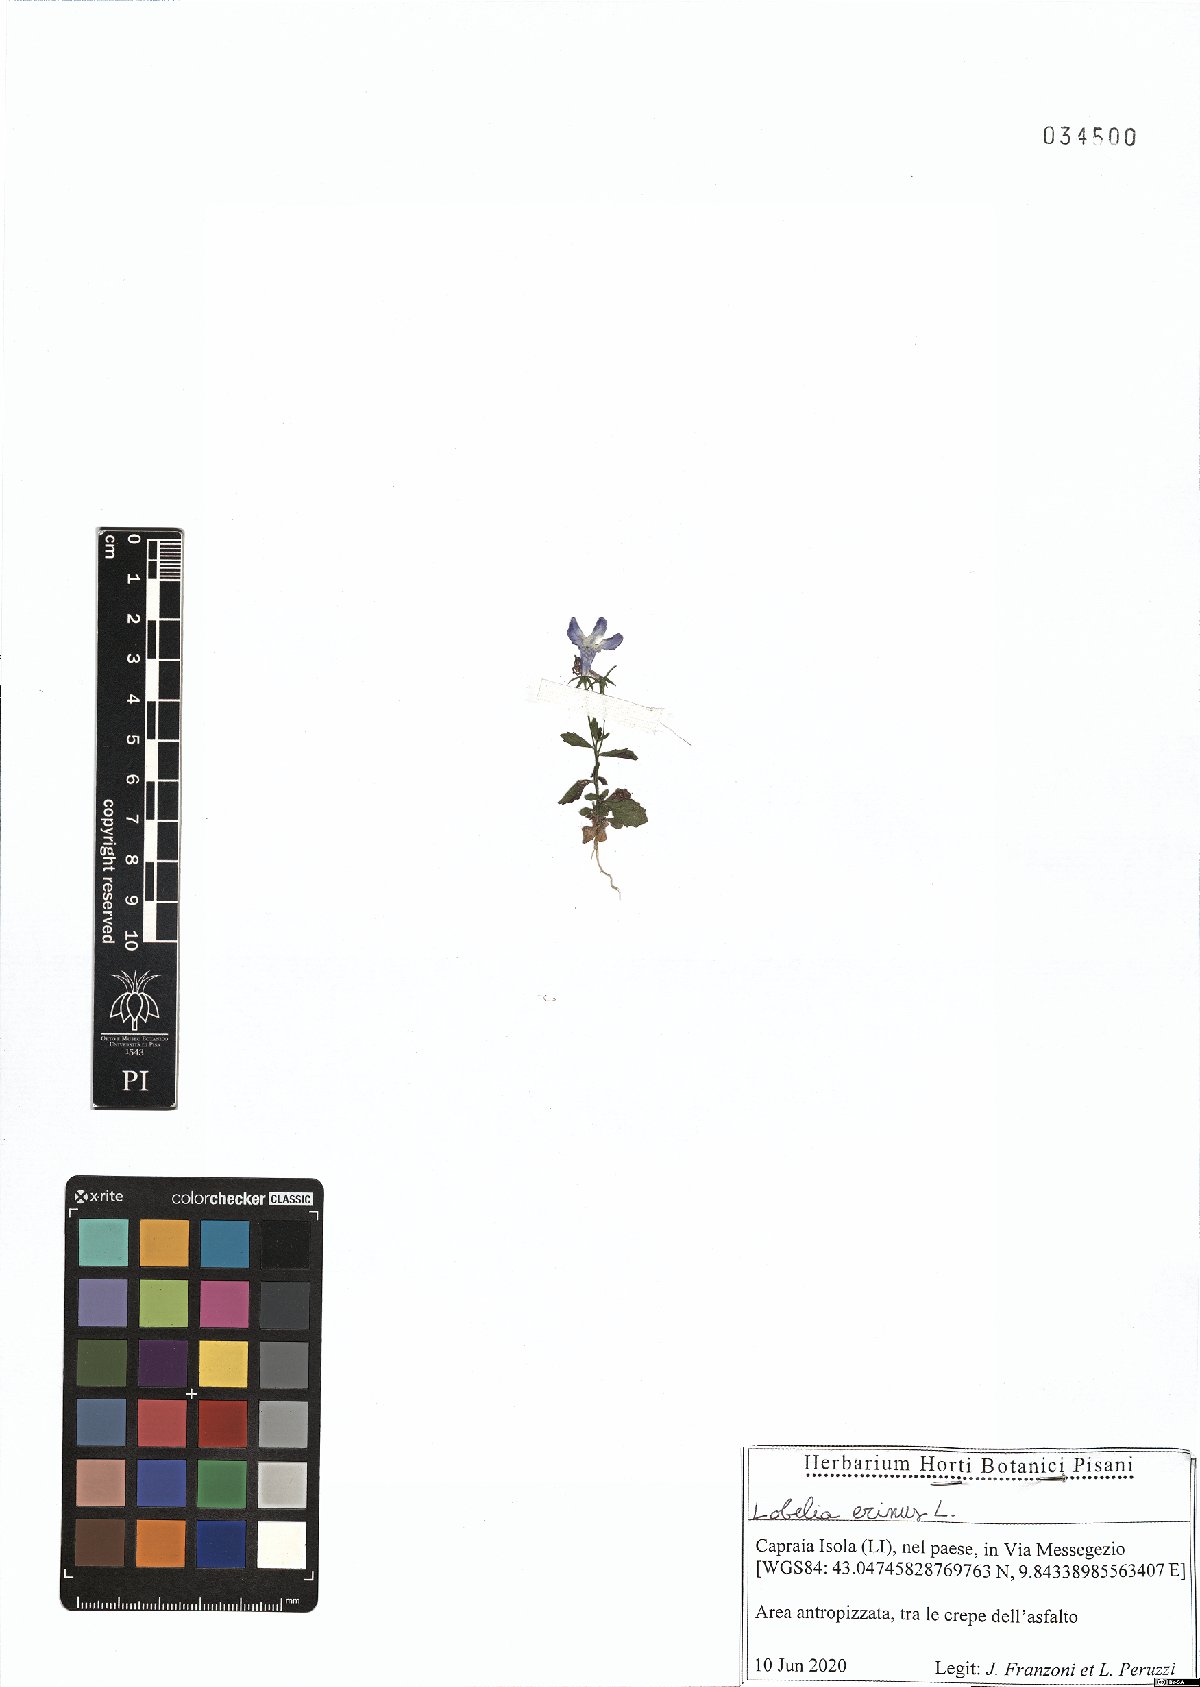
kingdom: Plantae
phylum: Tracheophyta
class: Magnoliopsida
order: Asterales
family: Campanulaceae
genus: Lobelia
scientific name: Lobelia erinus
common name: Edging lobelia
